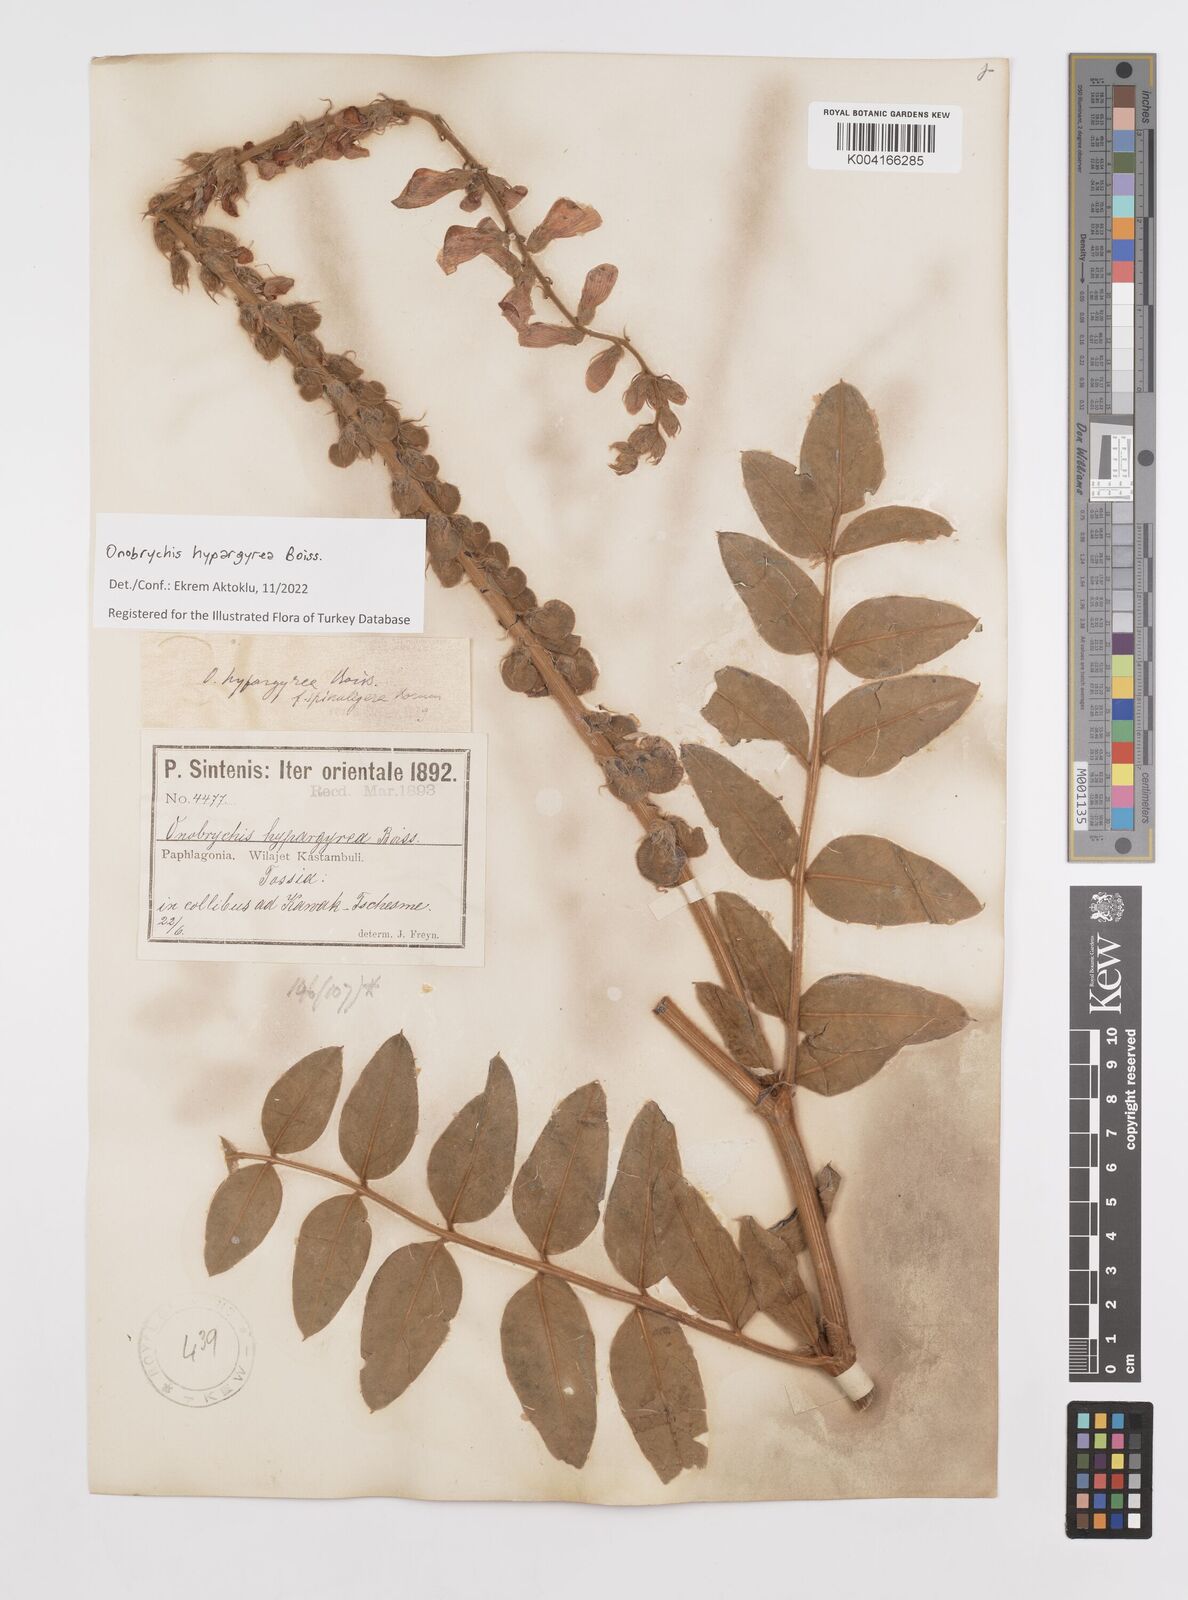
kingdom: Plantae
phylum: Tracheophyta
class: Magnoliopsida
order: Fabales
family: Fabaceae
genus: Onobrychis
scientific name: Onobrychis hypargyrea
